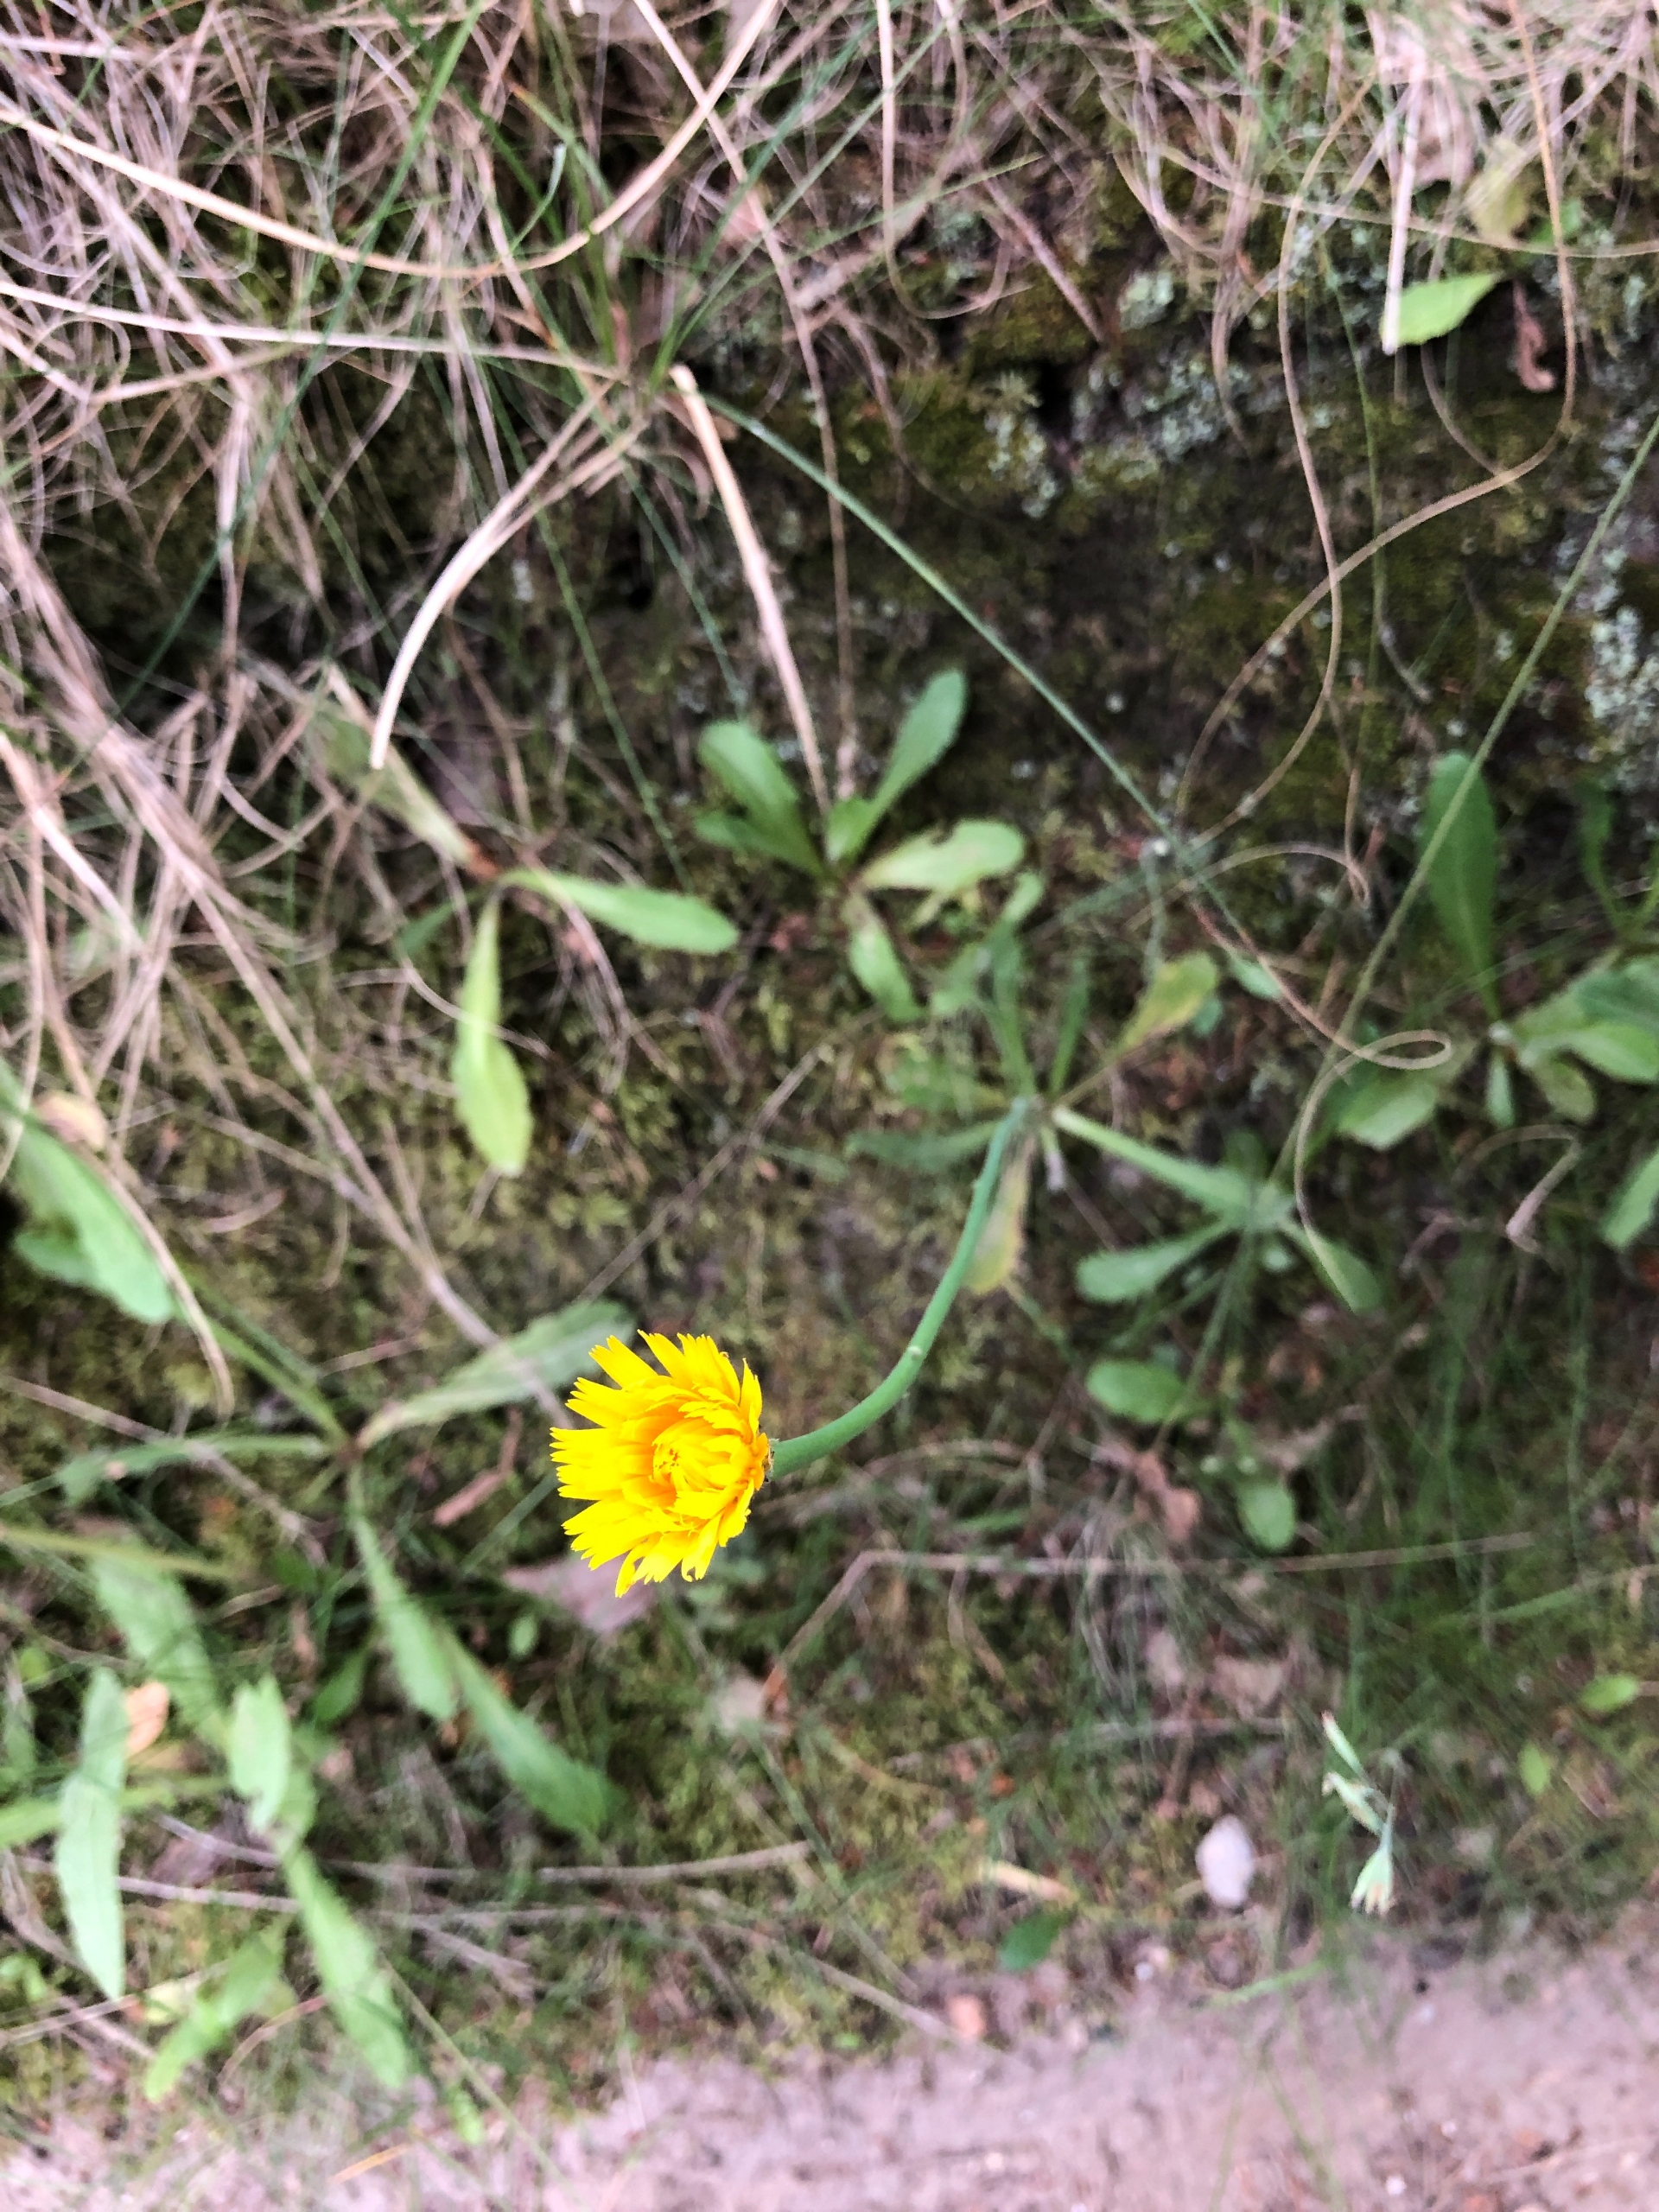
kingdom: Plantae
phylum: Tracheophyta
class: Magnoliopsida
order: Asterales
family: Asteraceae
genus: Hypochaeris
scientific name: Hypochaeris radicata
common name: Almindelig kongepen
